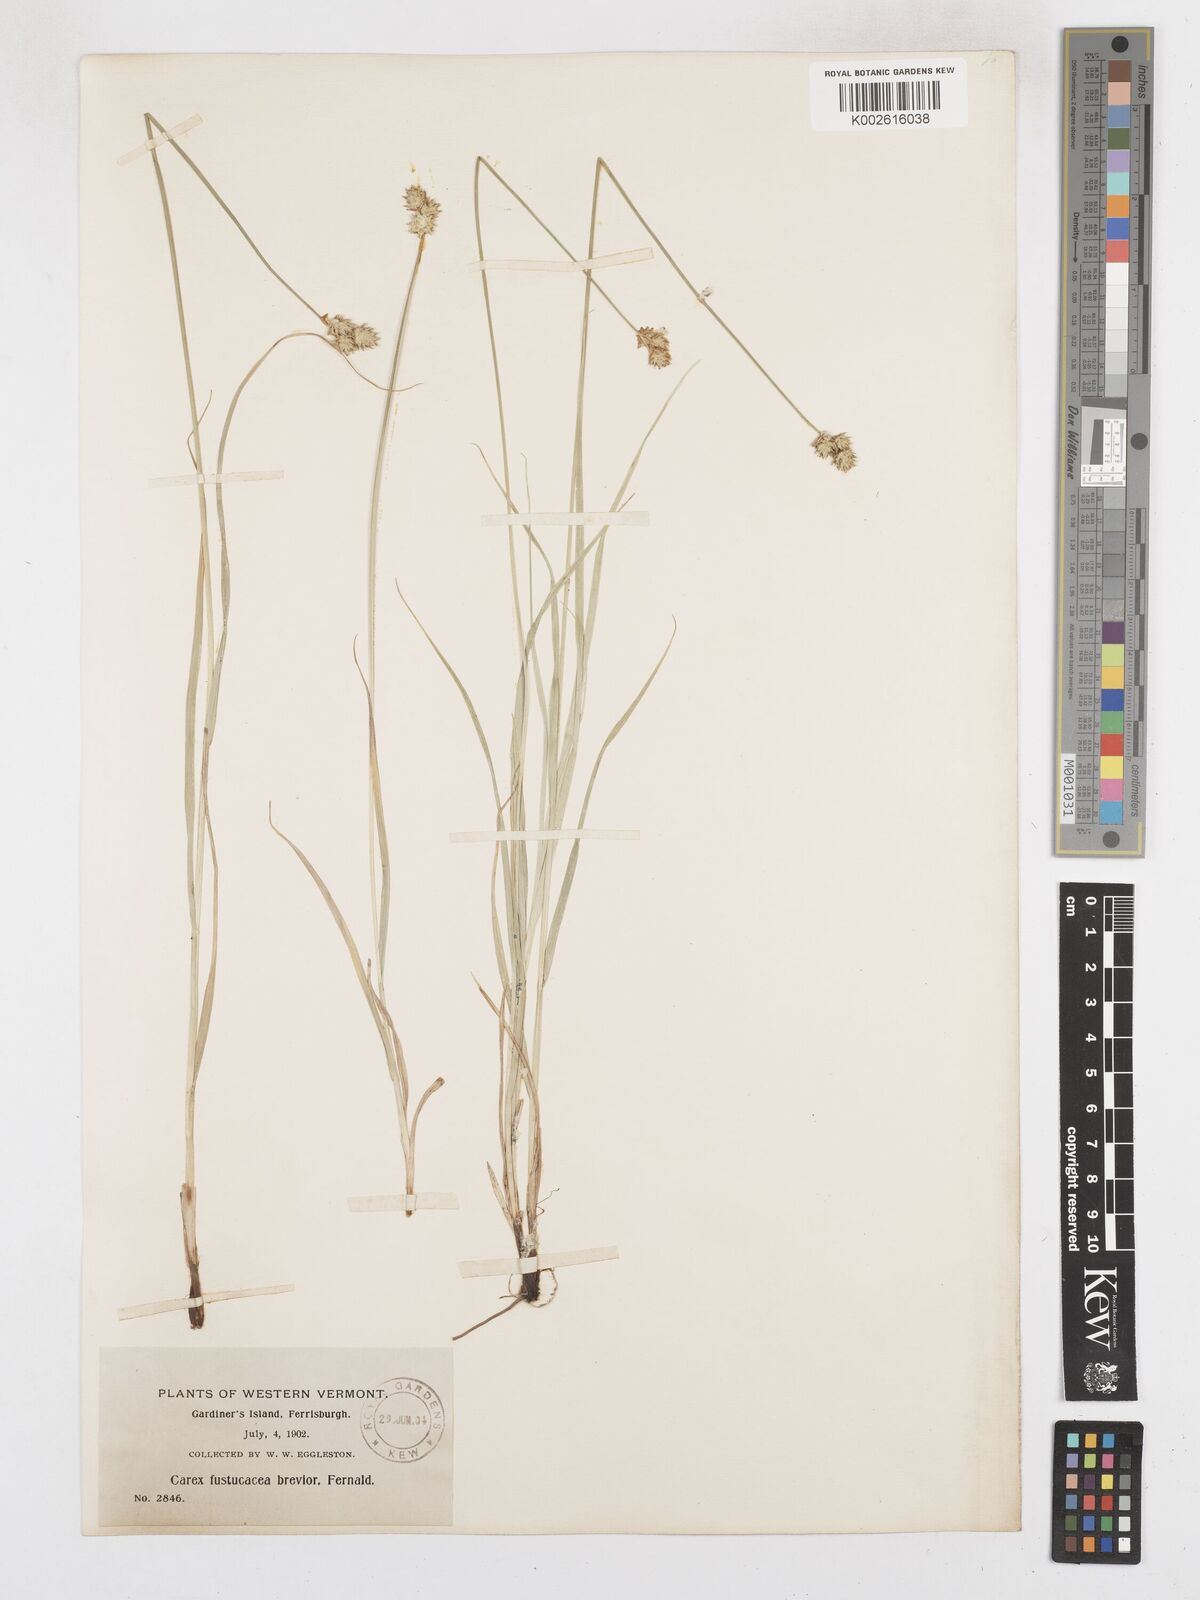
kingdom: Plantae
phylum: Tracheophyta
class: Liliopsida
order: Poales
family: Cyperaceae
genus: Carex
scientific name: Carex festucacea
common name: Fescue oval sedge
